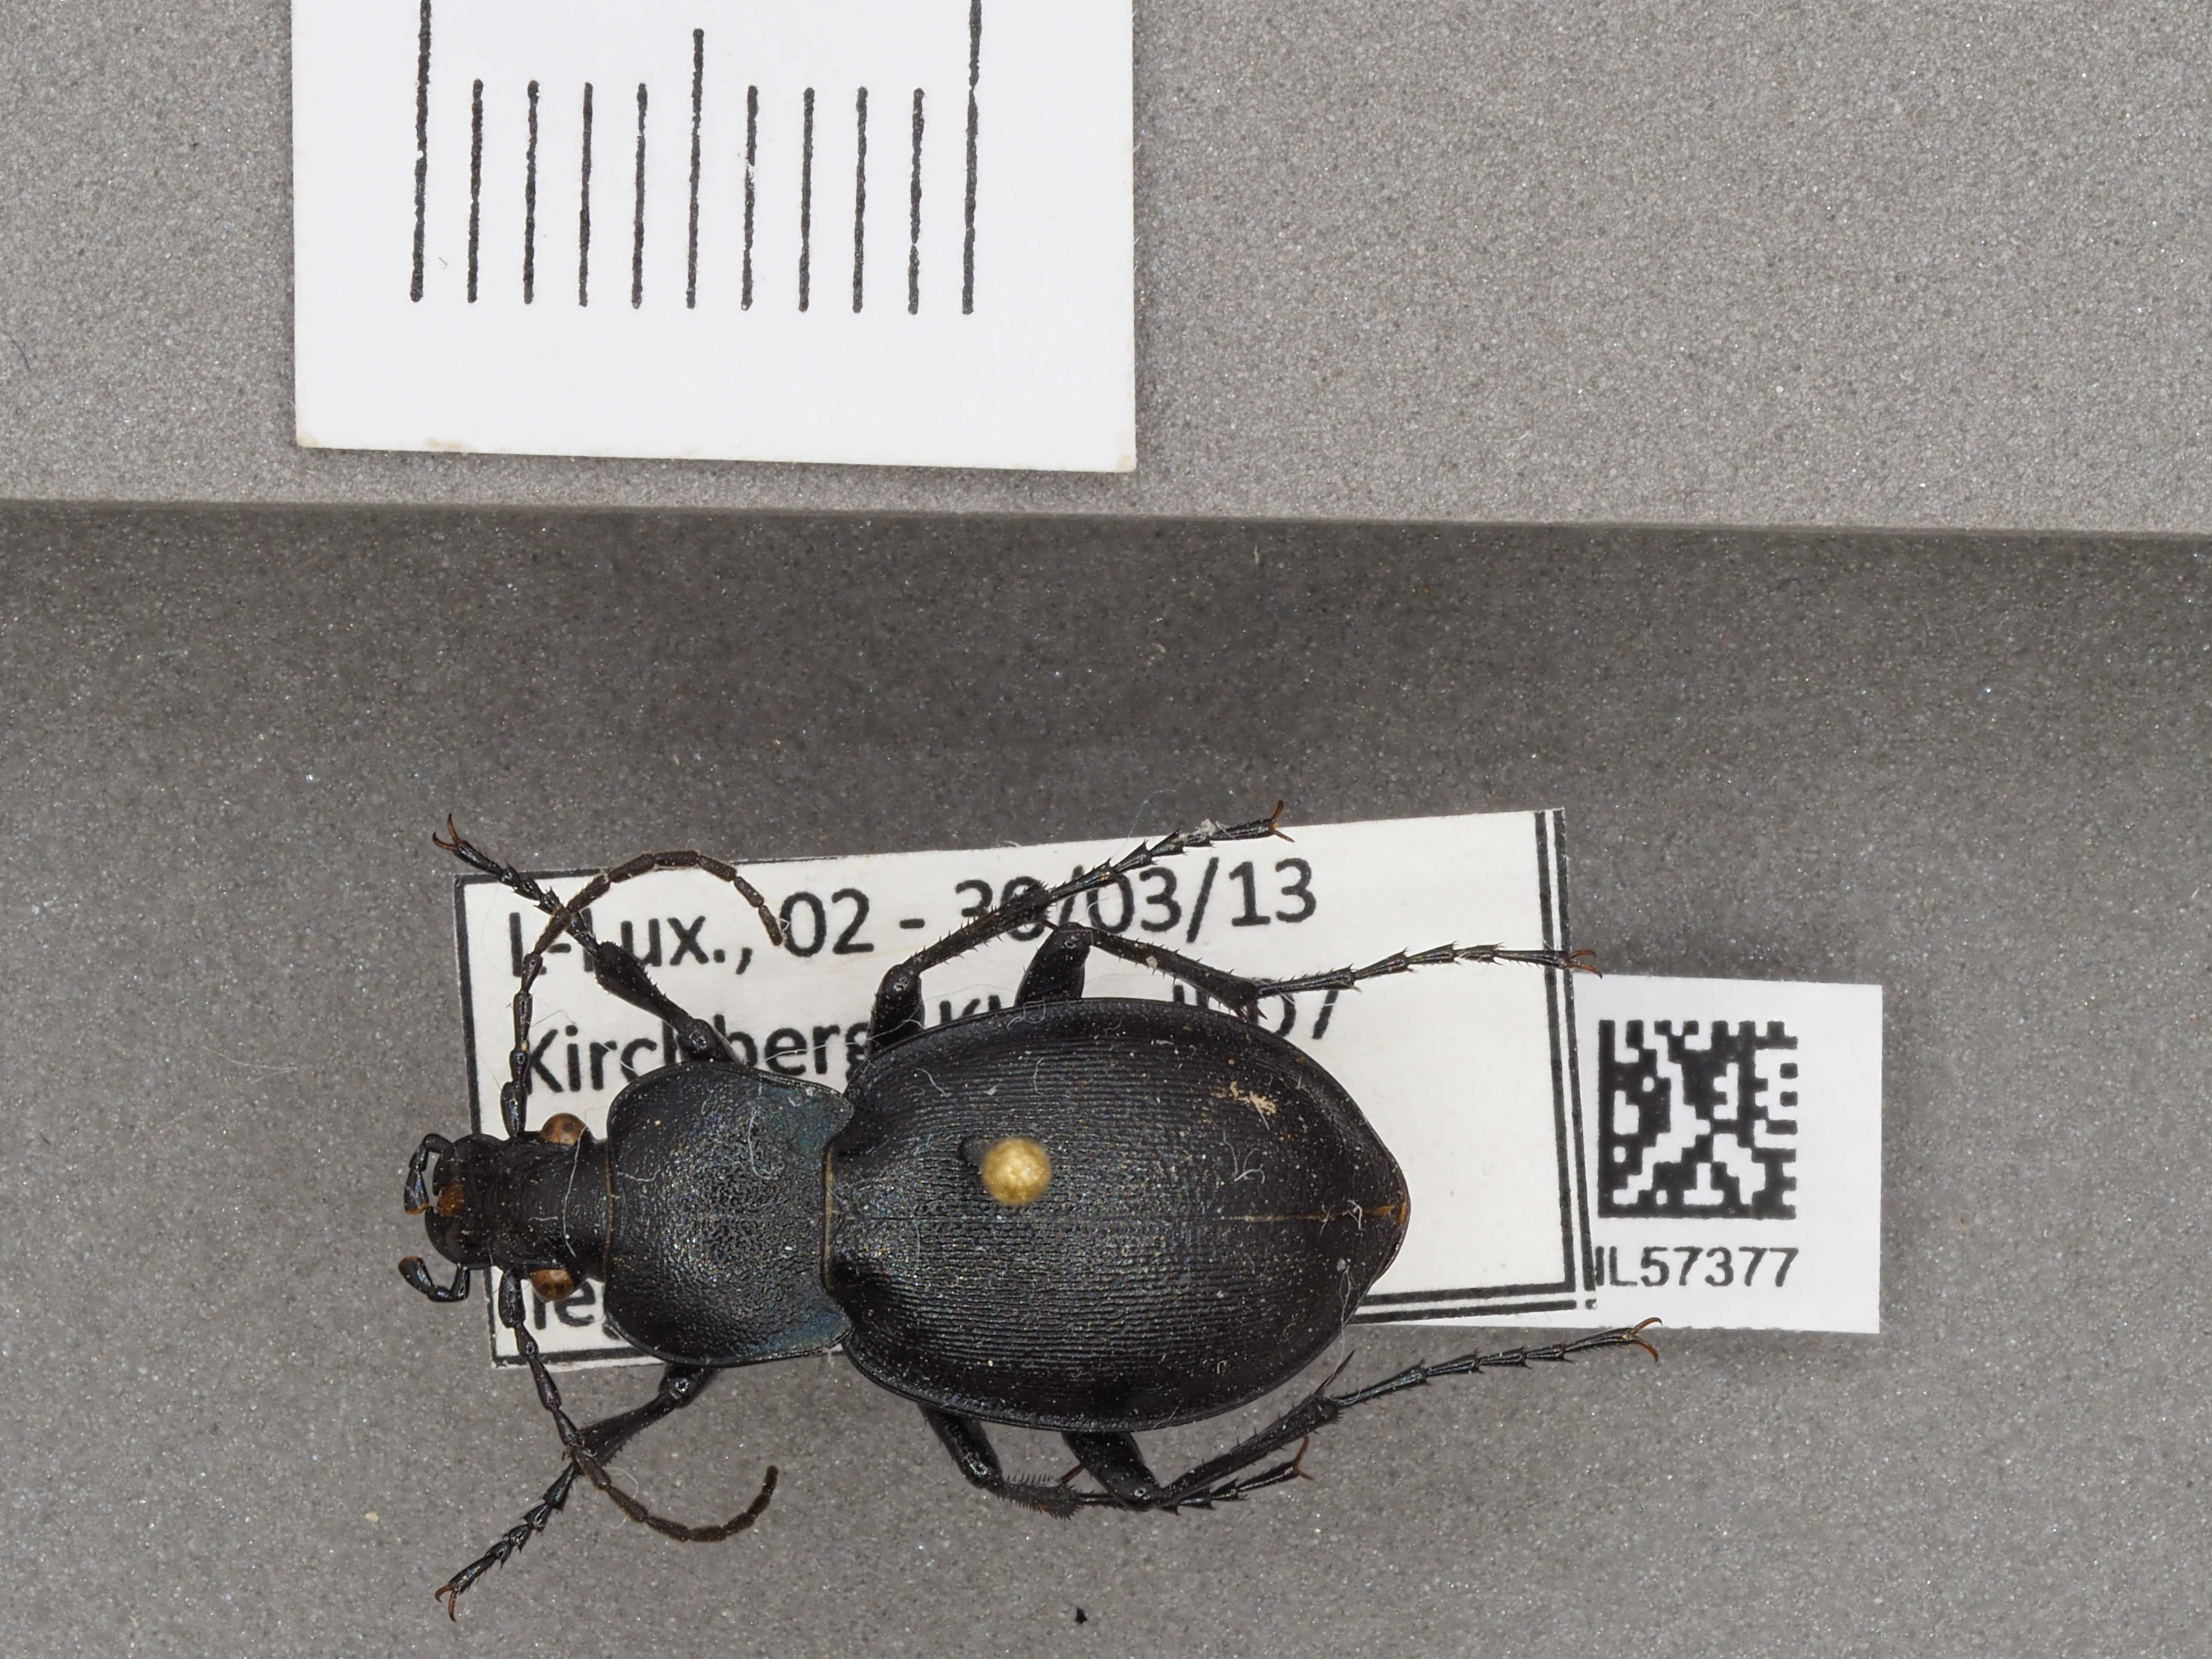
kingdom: Animalia
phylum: Arthropoda
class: Insecta
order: Coleoptera
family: Carabidae
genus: Carabus
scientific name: Carabus convexus
